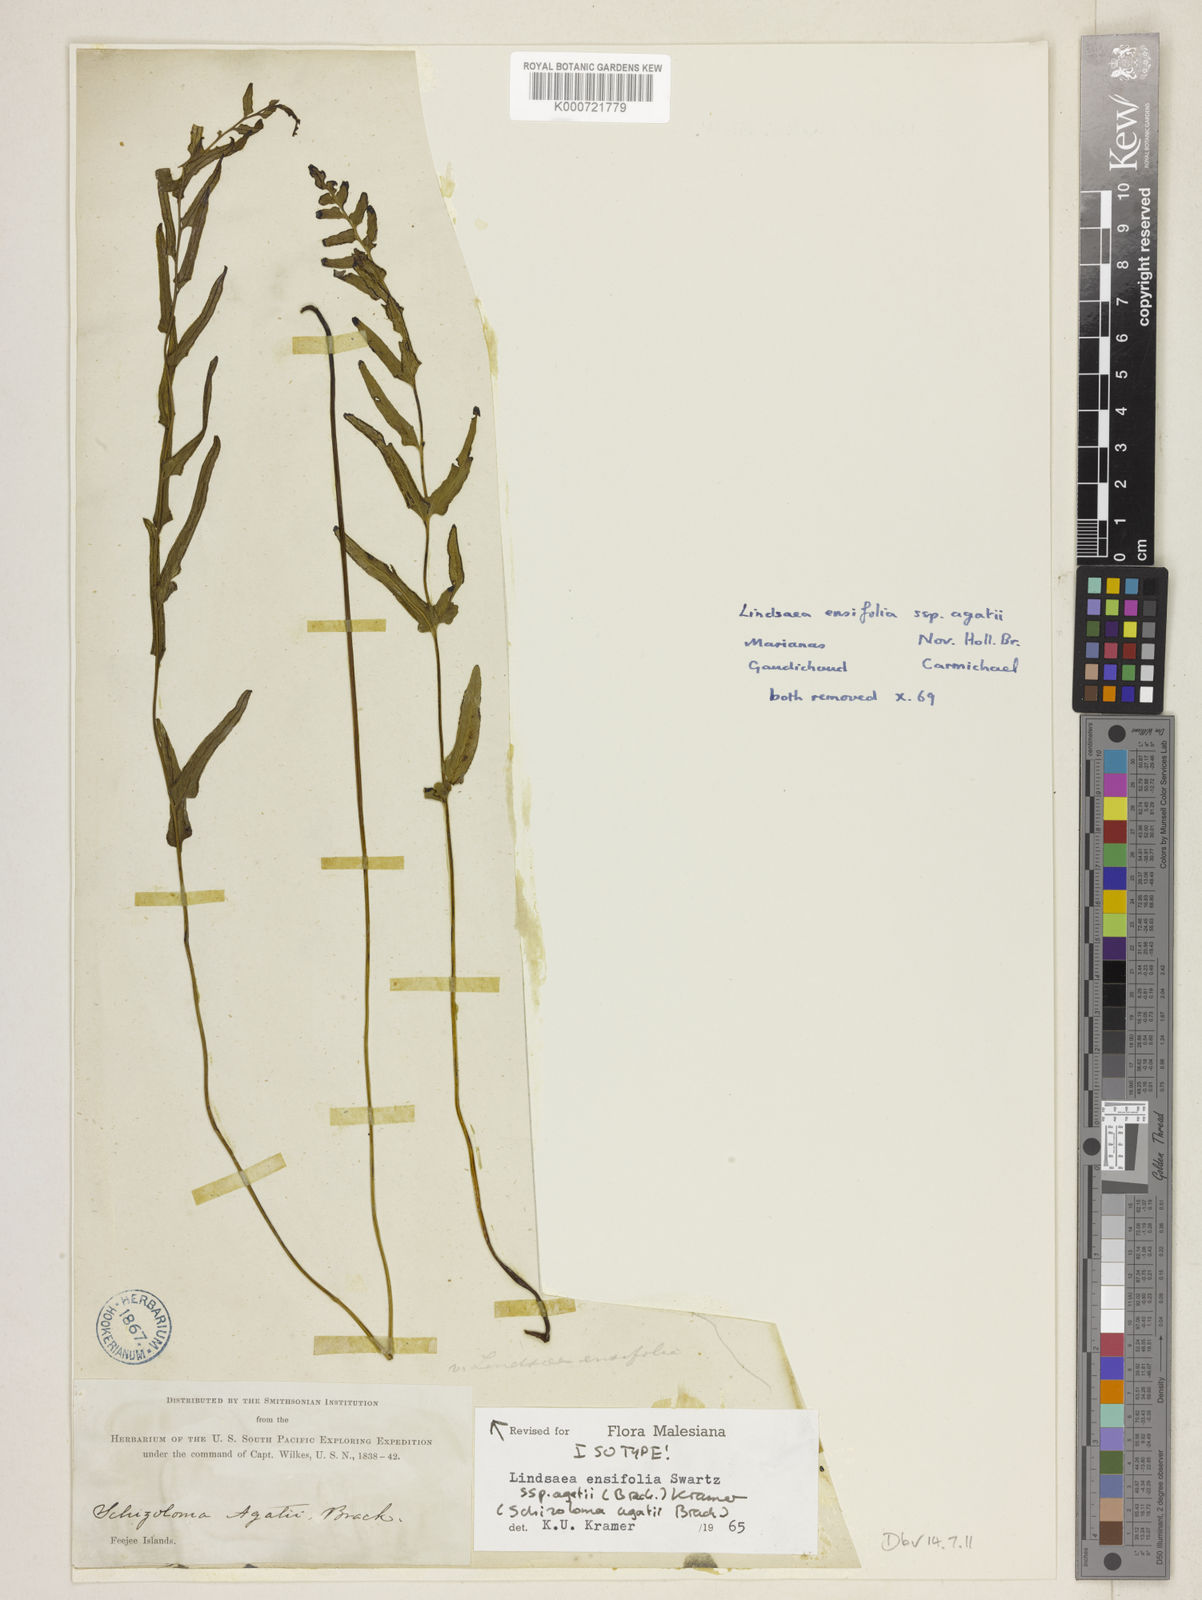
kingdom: Plantae
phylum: Tracheophyta
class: Polypodiopsida
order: Polypodiales
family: Lindsaeaceae
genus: Lindsaea
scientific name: Lindsaea ensifolia
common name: Graceful necklace fern
